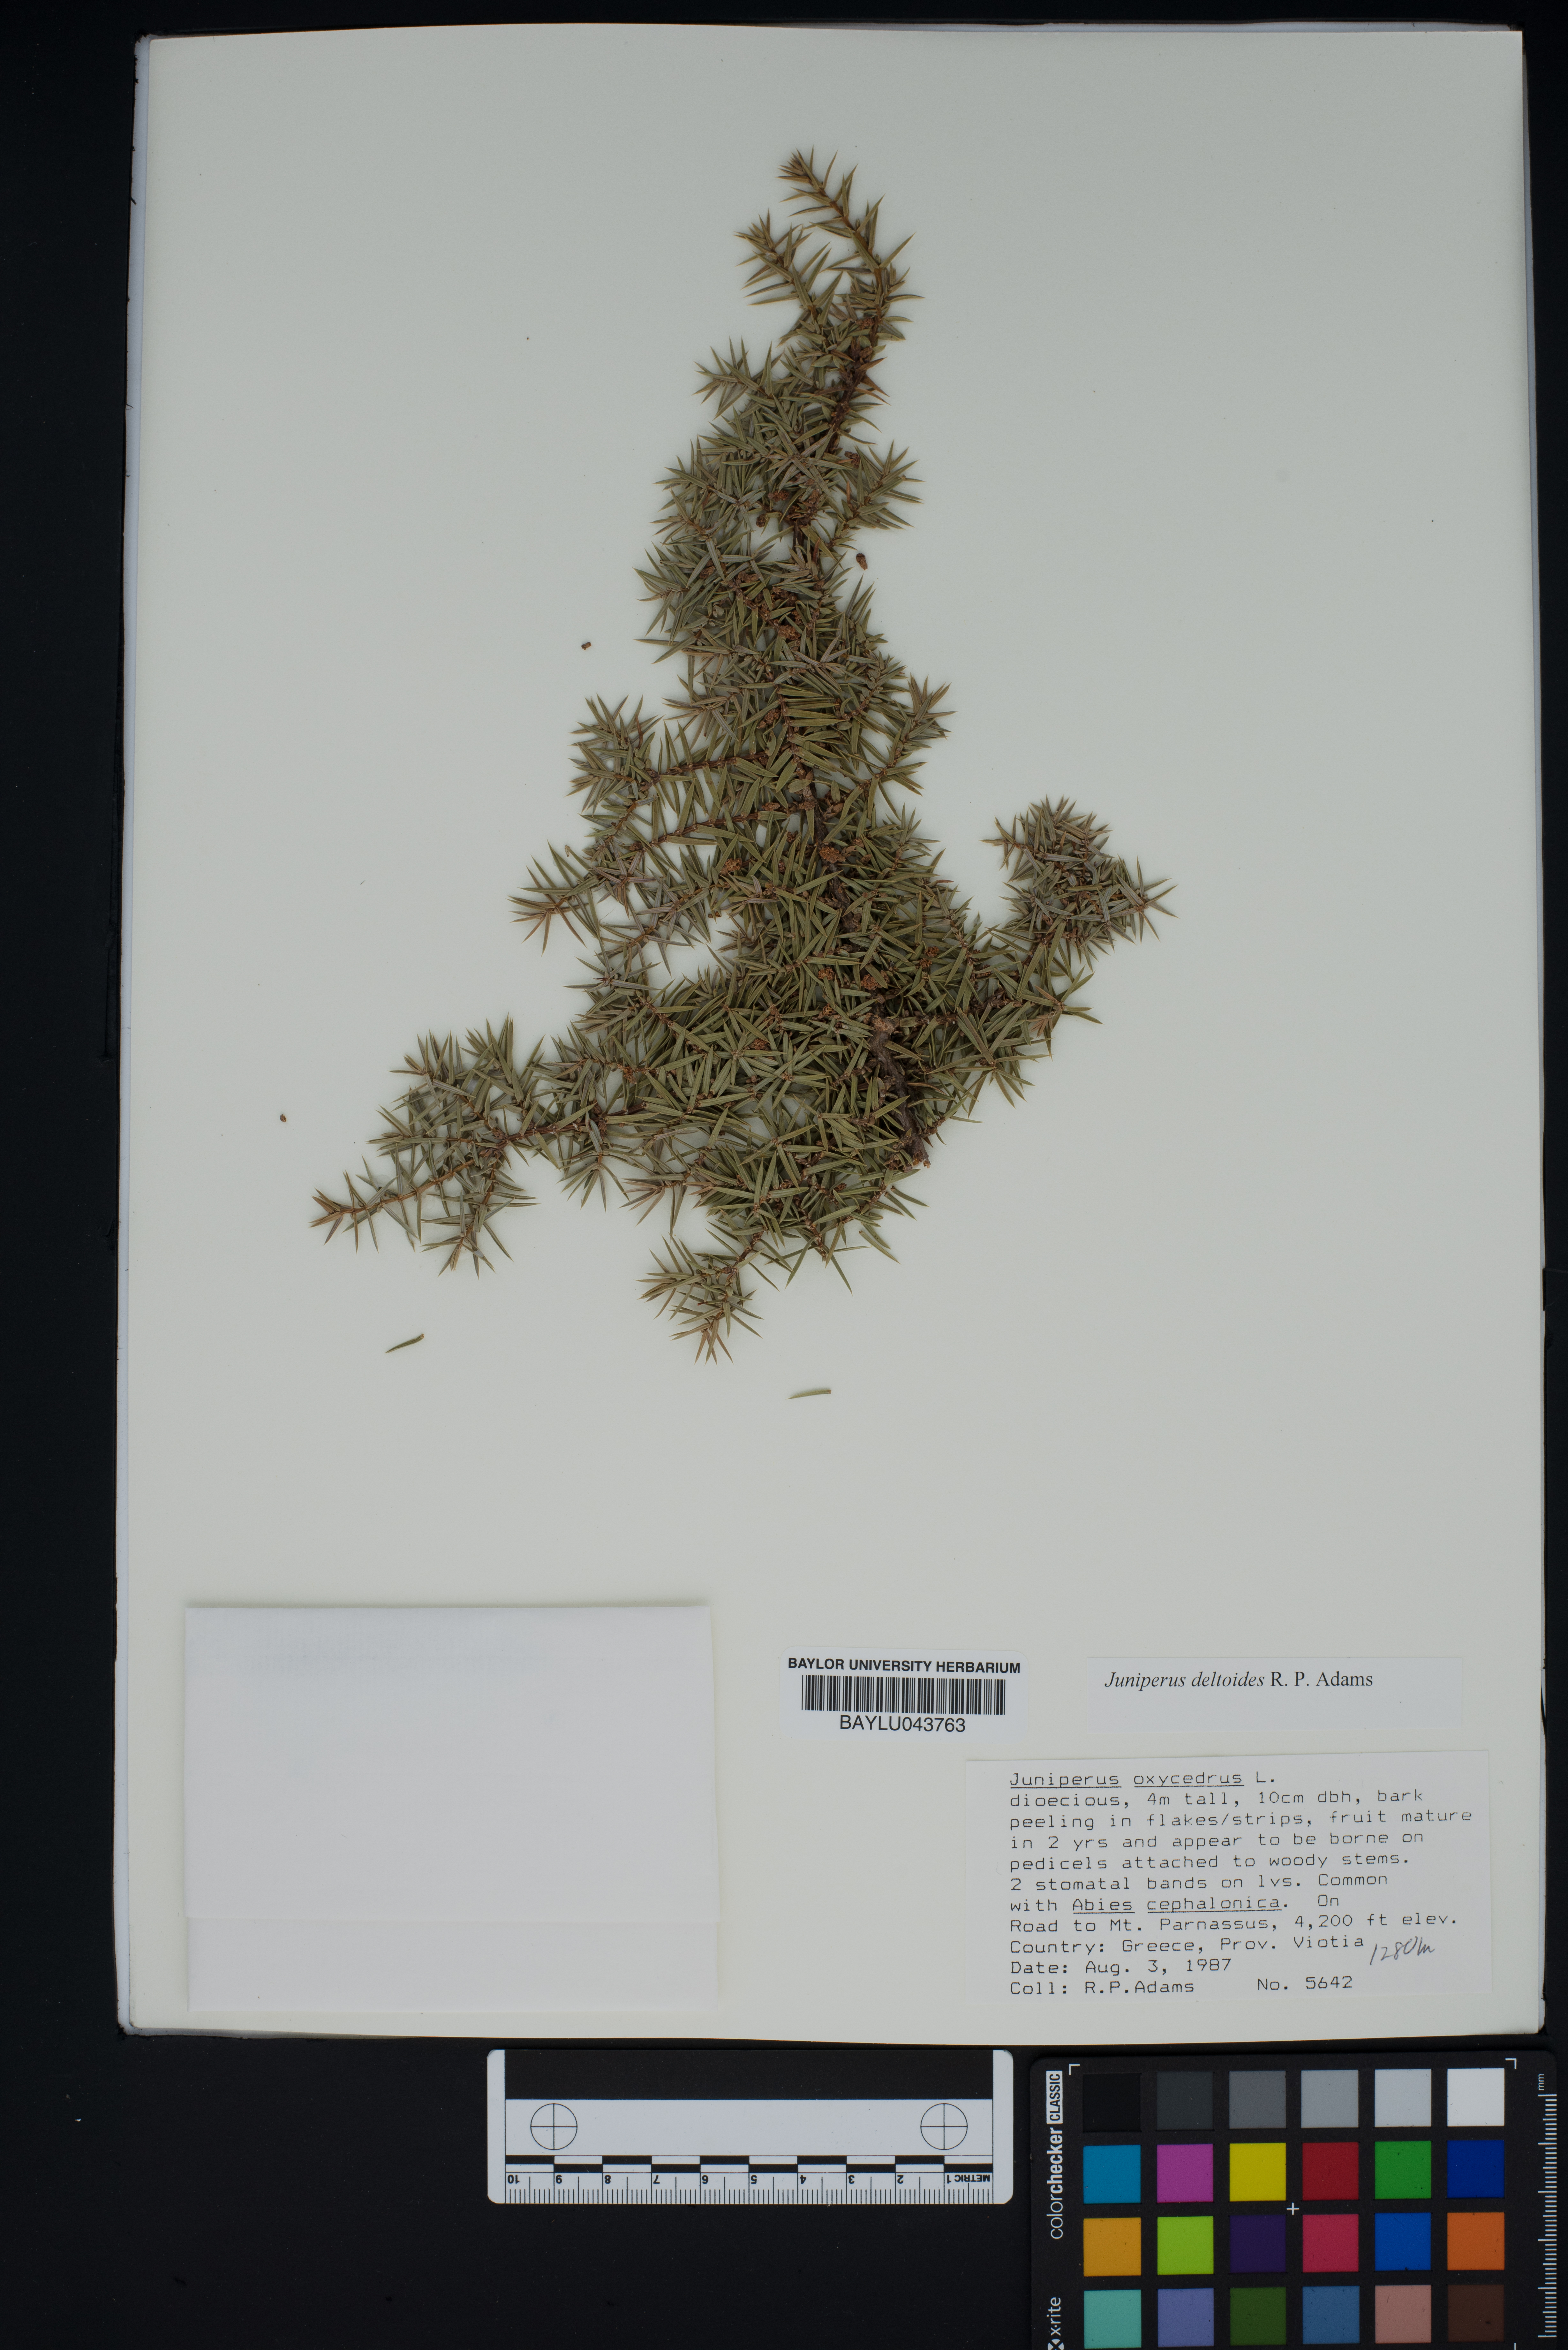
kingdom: Plantae
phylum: Tracheophyta
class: Pinopsida
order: Pinales
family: Cupressaceae
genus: Juniperus
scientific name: Juniperus oxycedrus
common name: Prickly juniper
